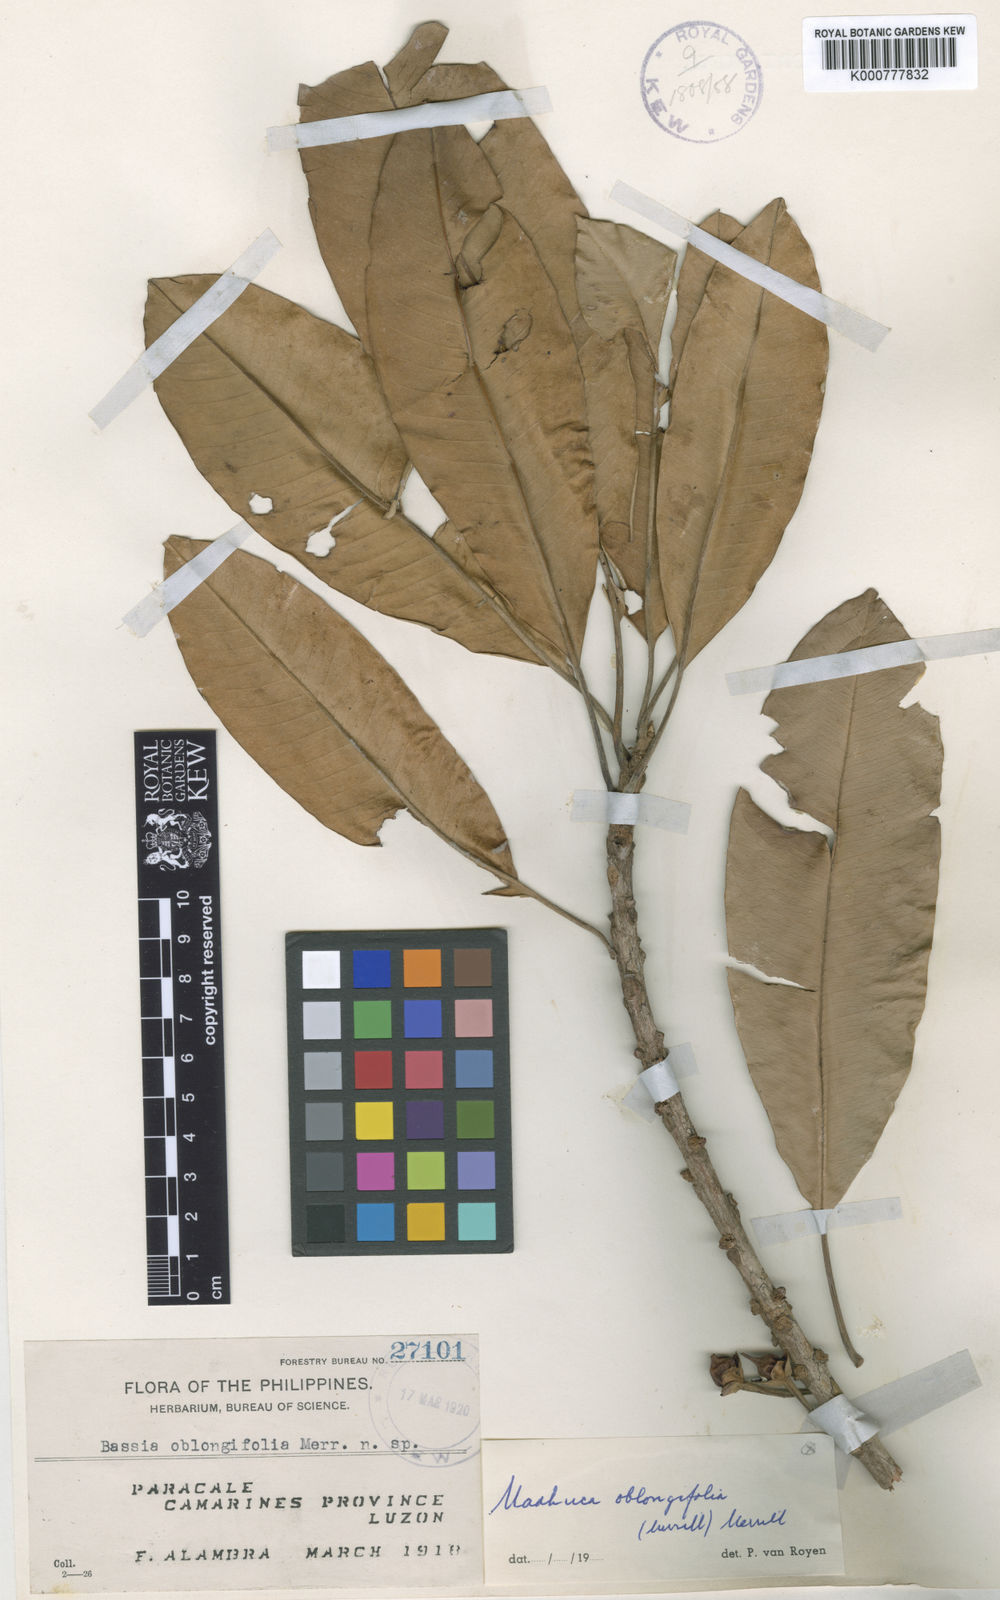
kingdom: Plantae
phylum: Tracheophyta
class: Magnoliopsida
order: Ericales
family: Sapotaceae
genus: Madhuca
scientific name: Madhuca oblongifolia
